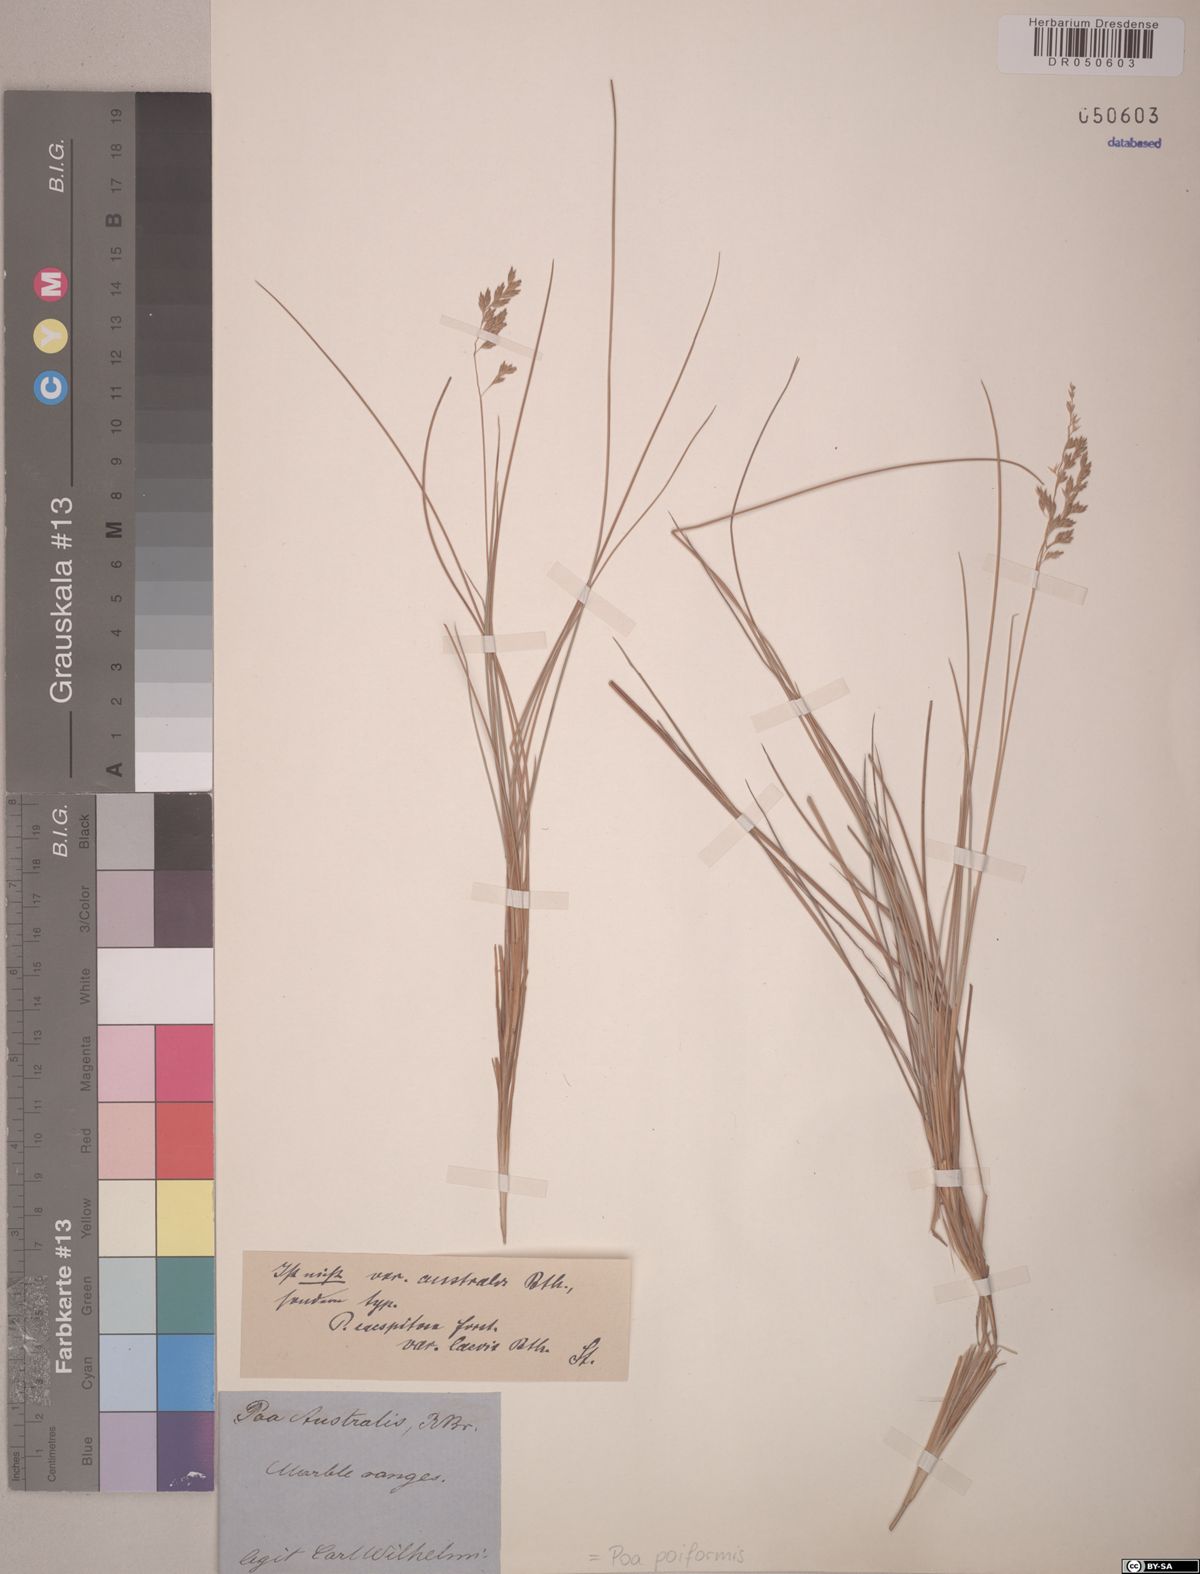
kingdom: Plantae
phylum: Tracheophyta
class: Liliopsida
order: Poales
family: Poaceae
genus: Poa
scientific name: Poa poiformis
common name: Tussock poa
